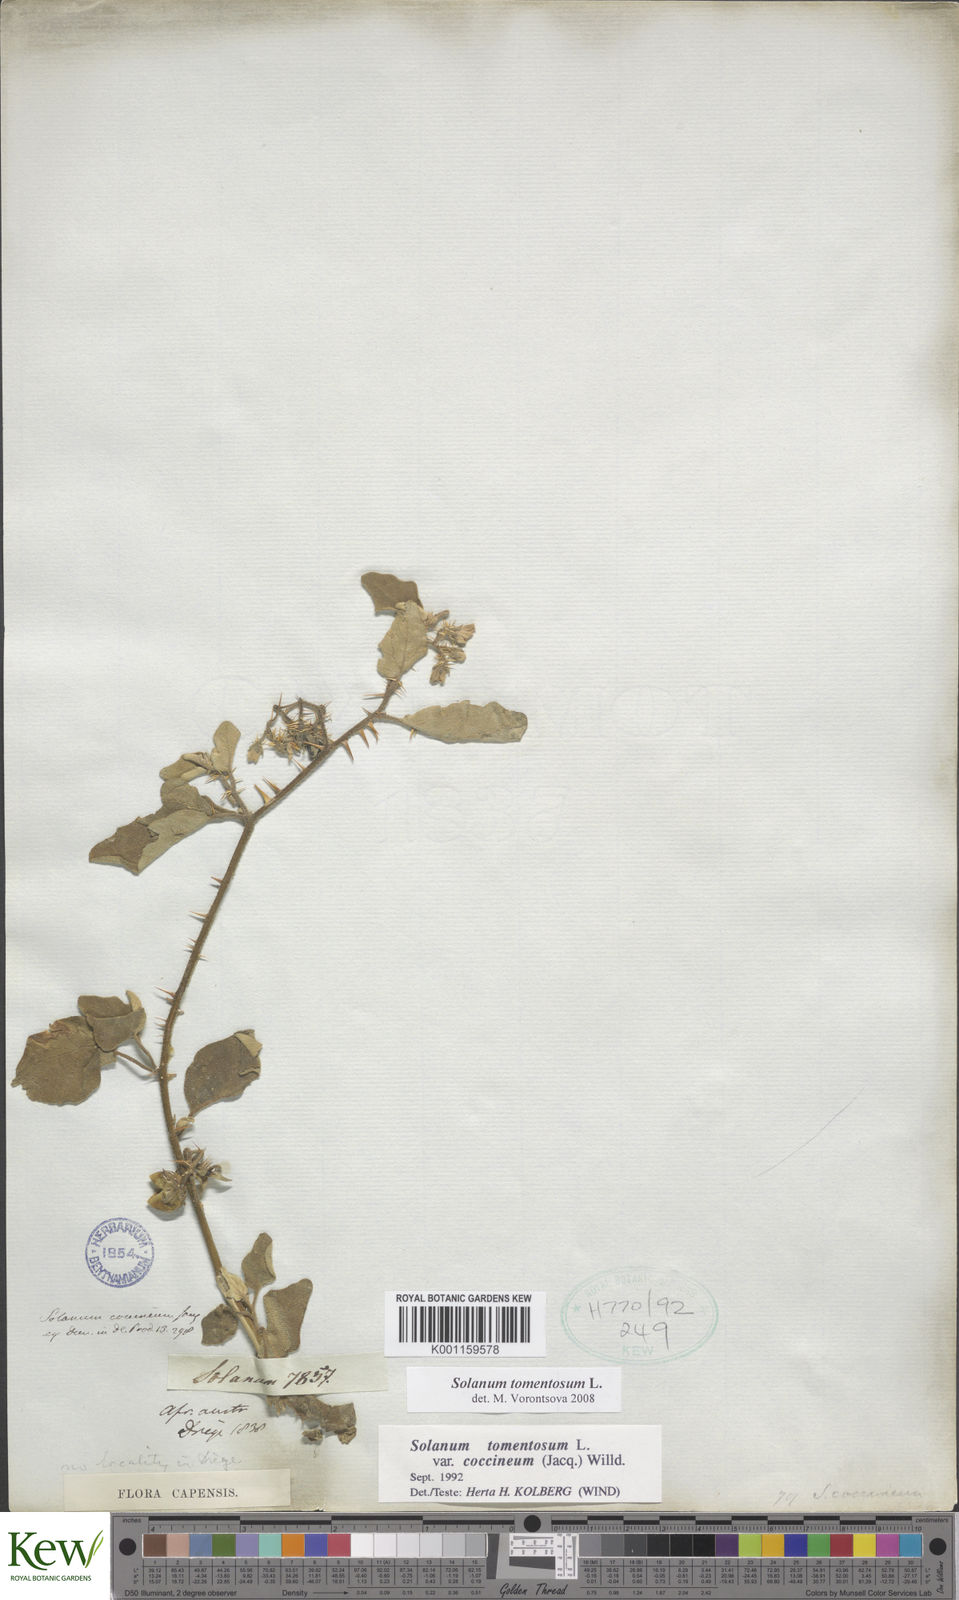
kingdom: Plantae
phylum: Tracheophyta
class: Magnoliopsida
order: Solanales
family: Solanaceae
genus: Solanum
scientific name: Solanum tomentosum
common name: Wild aubergine
